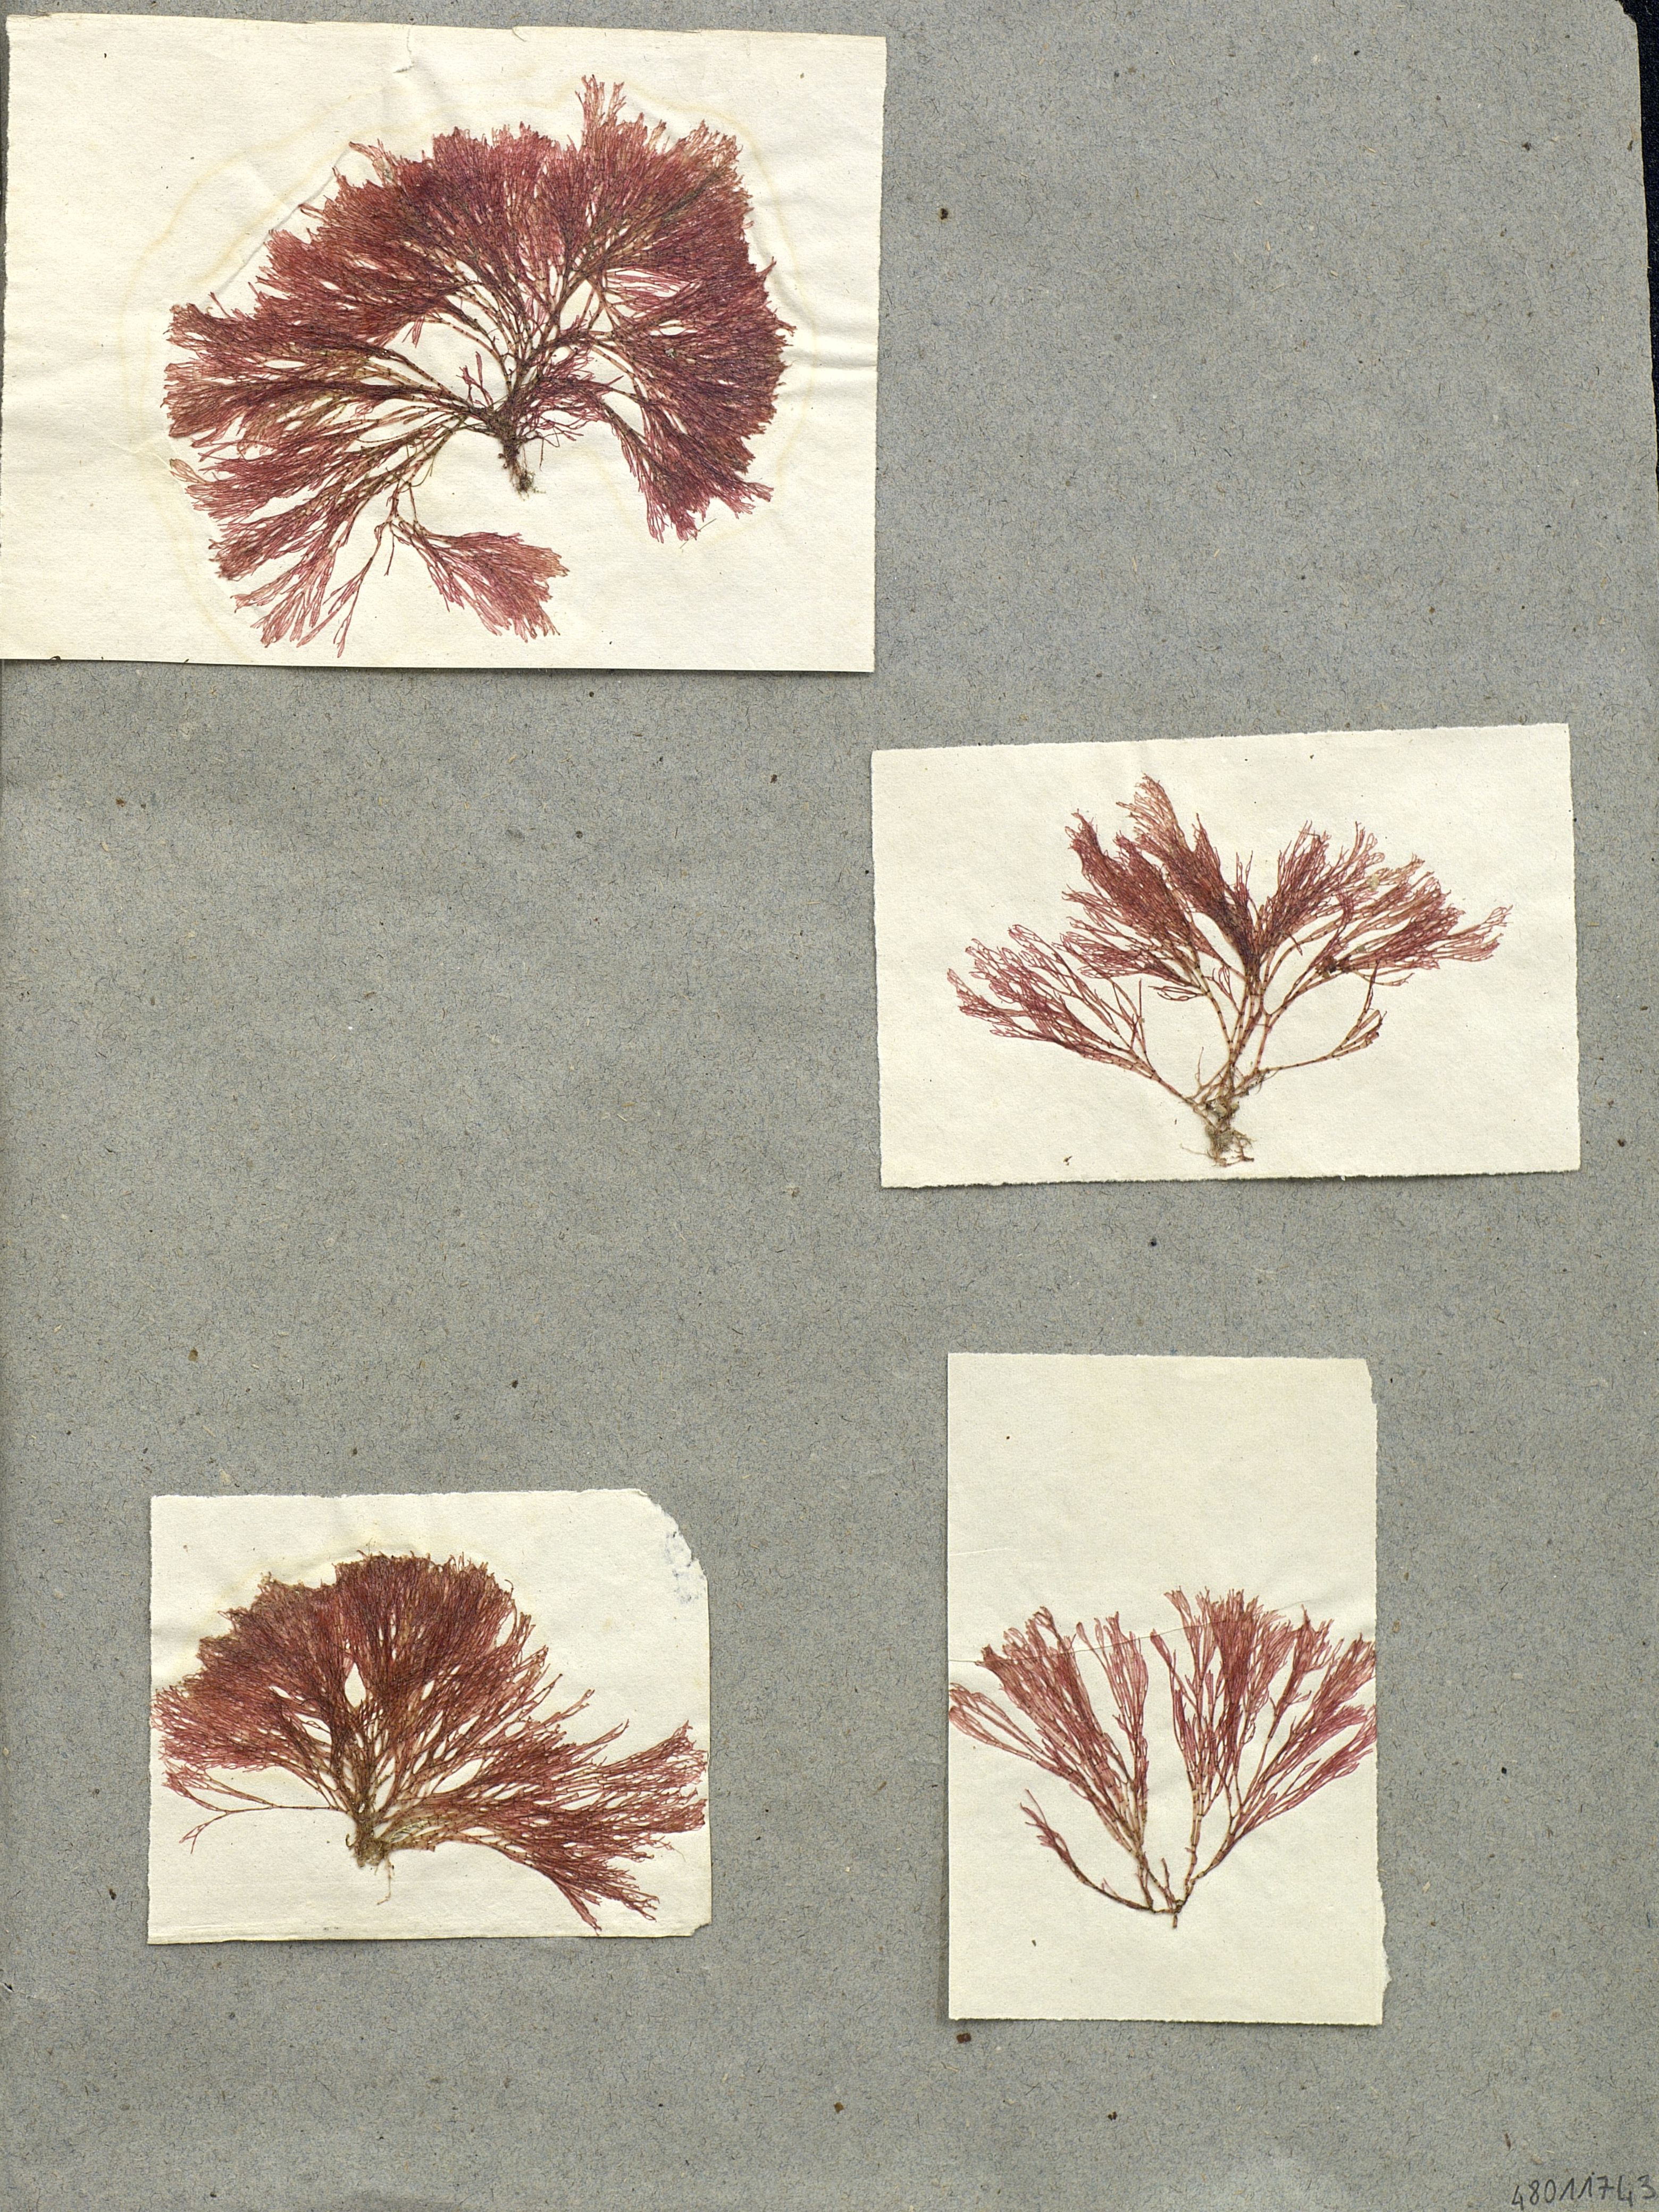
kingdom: Plantae
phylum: Rhodophyta
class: Florideophyceae
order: Ceramiales
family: Wrangeliaceae
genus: Griffithsia
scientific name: Griffithsia corallinoides
